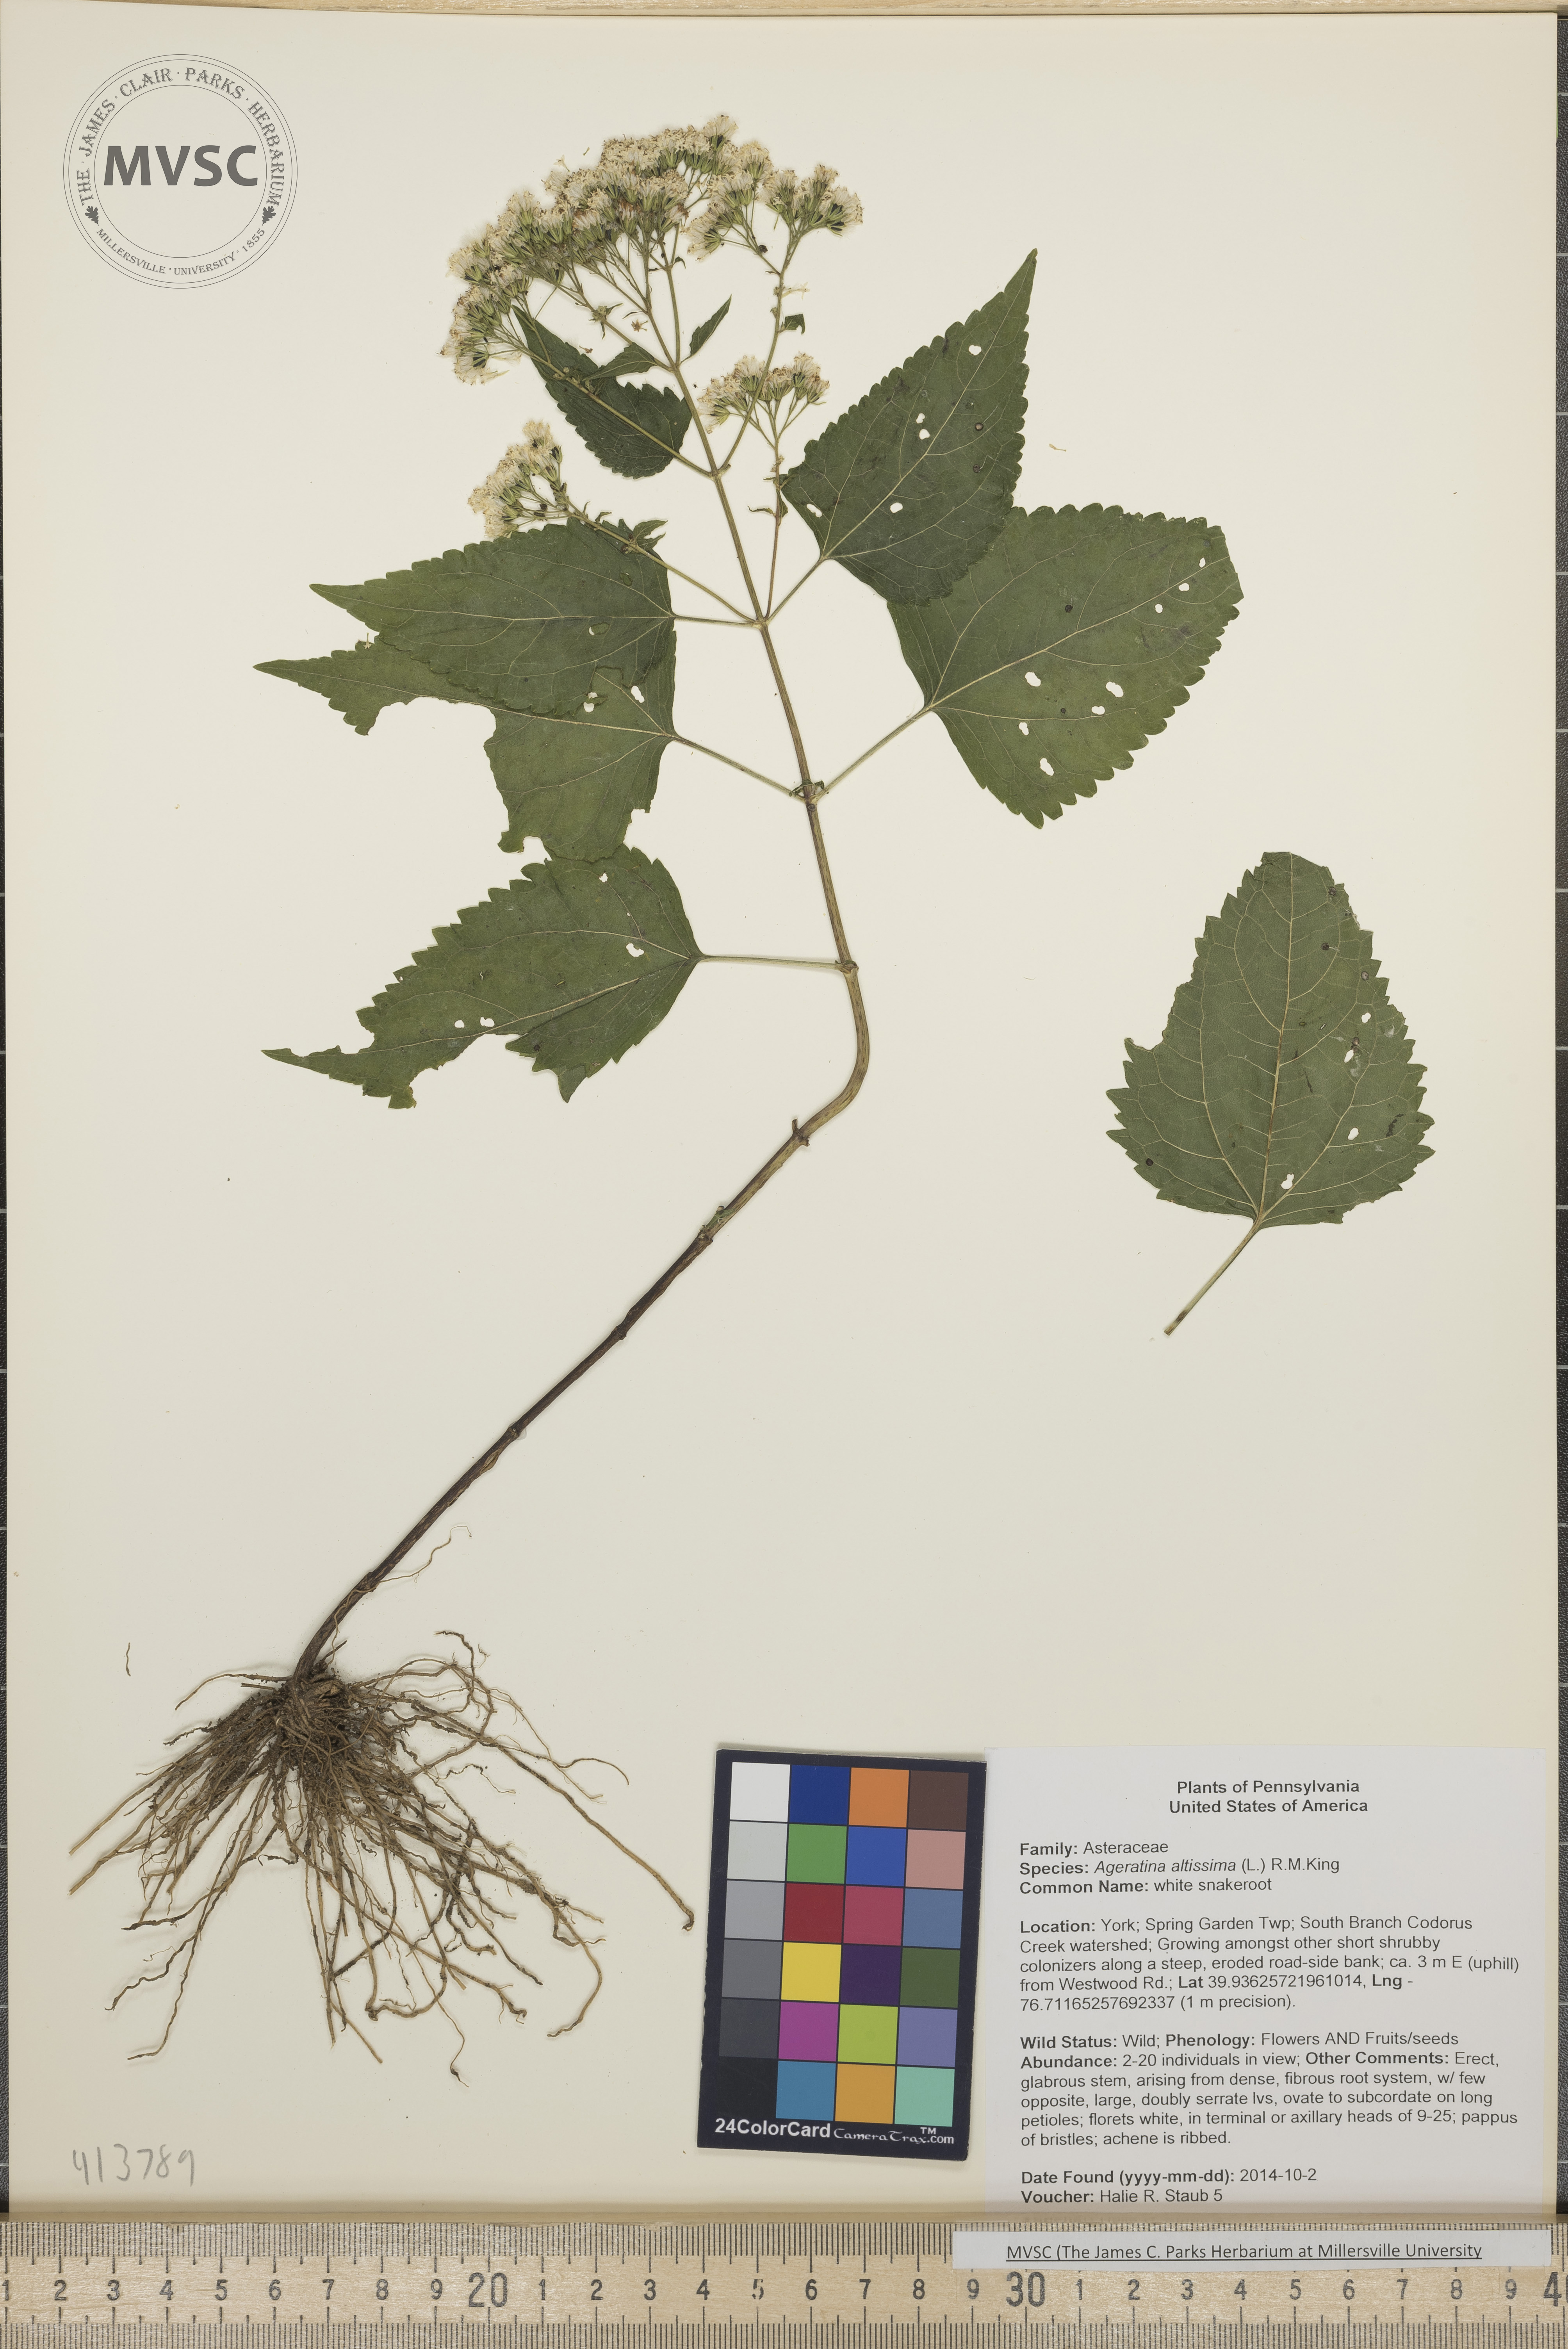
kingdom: Plantae
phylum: Tracheophyta
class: Magnoliopsida
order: Asterales
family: Asteraceae
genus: Ageratina
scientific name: Ageratina altissima
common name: White Snakeroot
